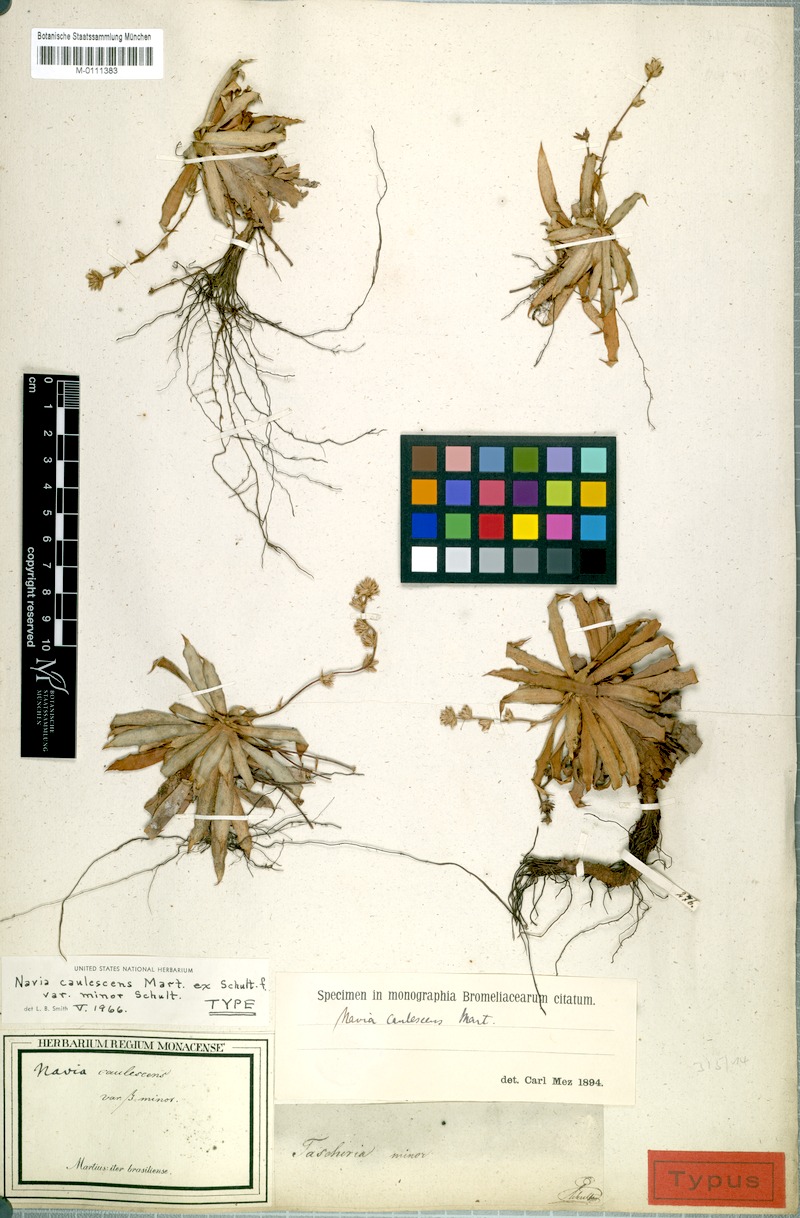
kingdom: Plantae
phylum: Tracheophyta
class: Liliopsida
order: Poales
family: Bromeliaceae
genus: Navia
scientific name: Navia caulescens
